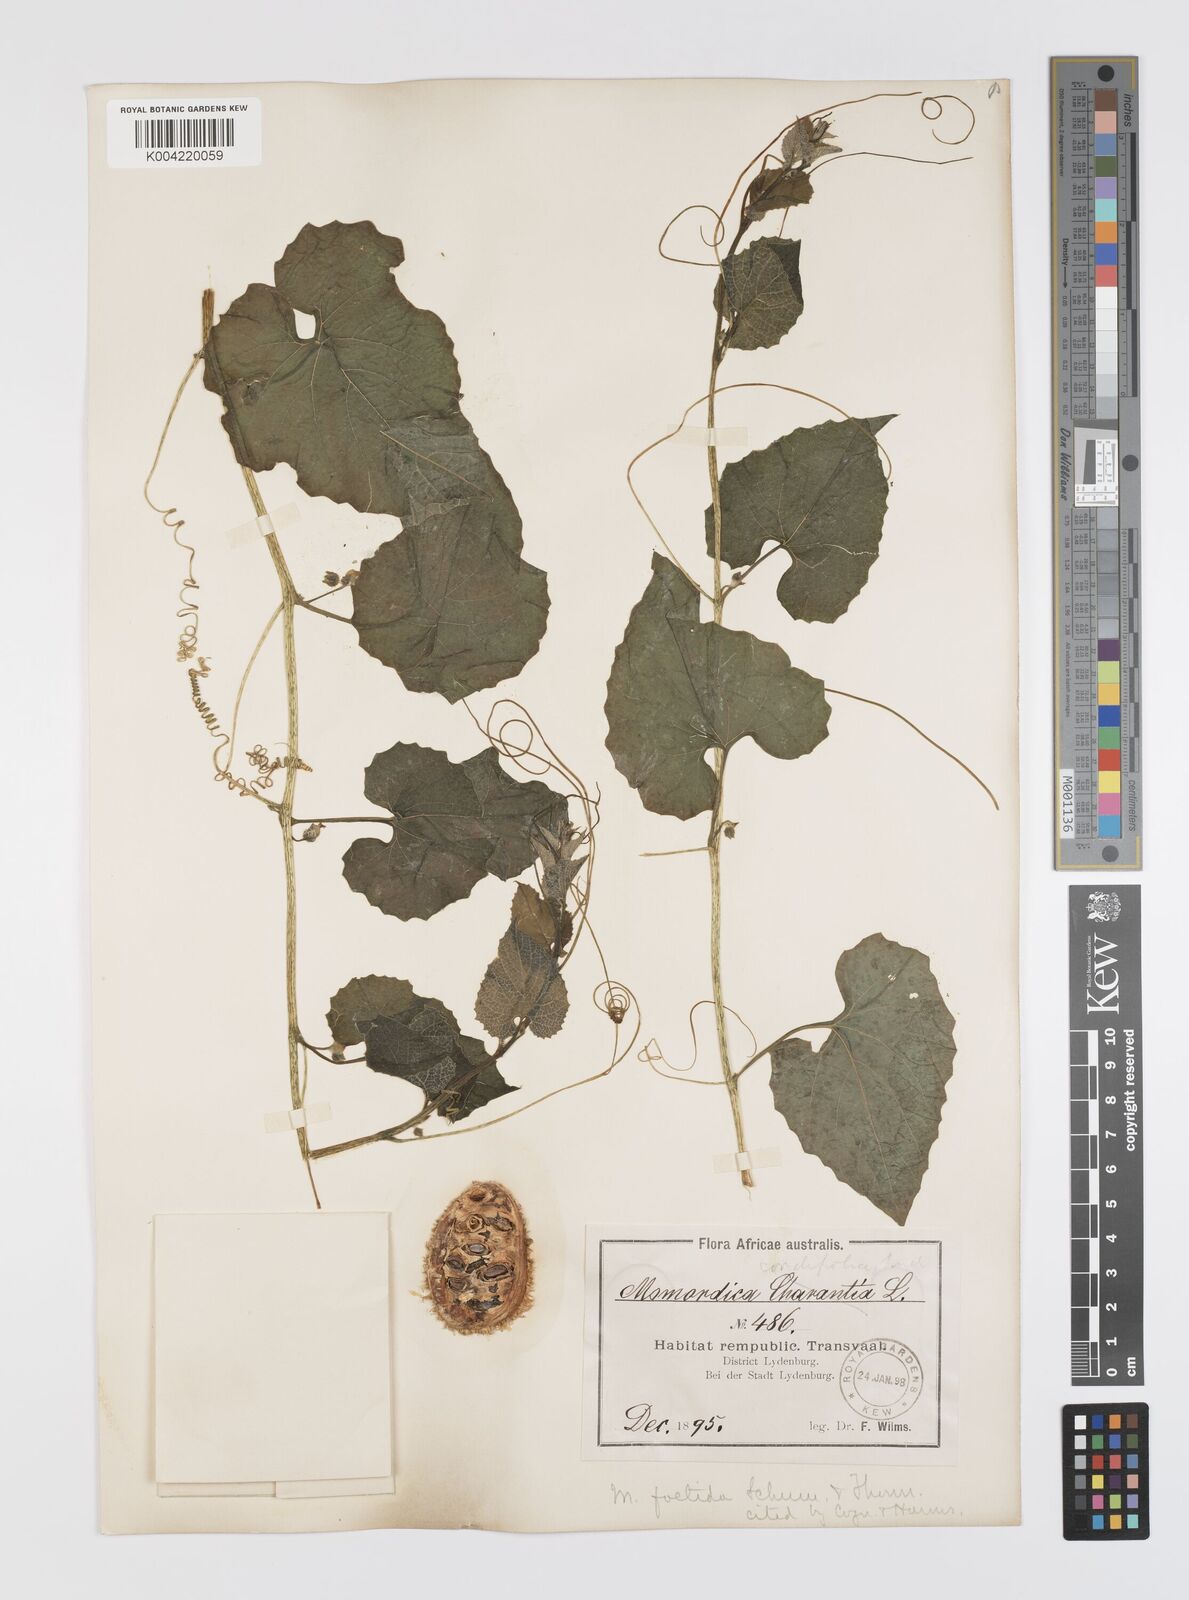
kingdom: Plantae
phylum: Tracheophyta
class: Magnoliopsida
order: Cucurbitales
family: Cucurbitaceae
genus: Momordica
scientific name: Momordica foetida
